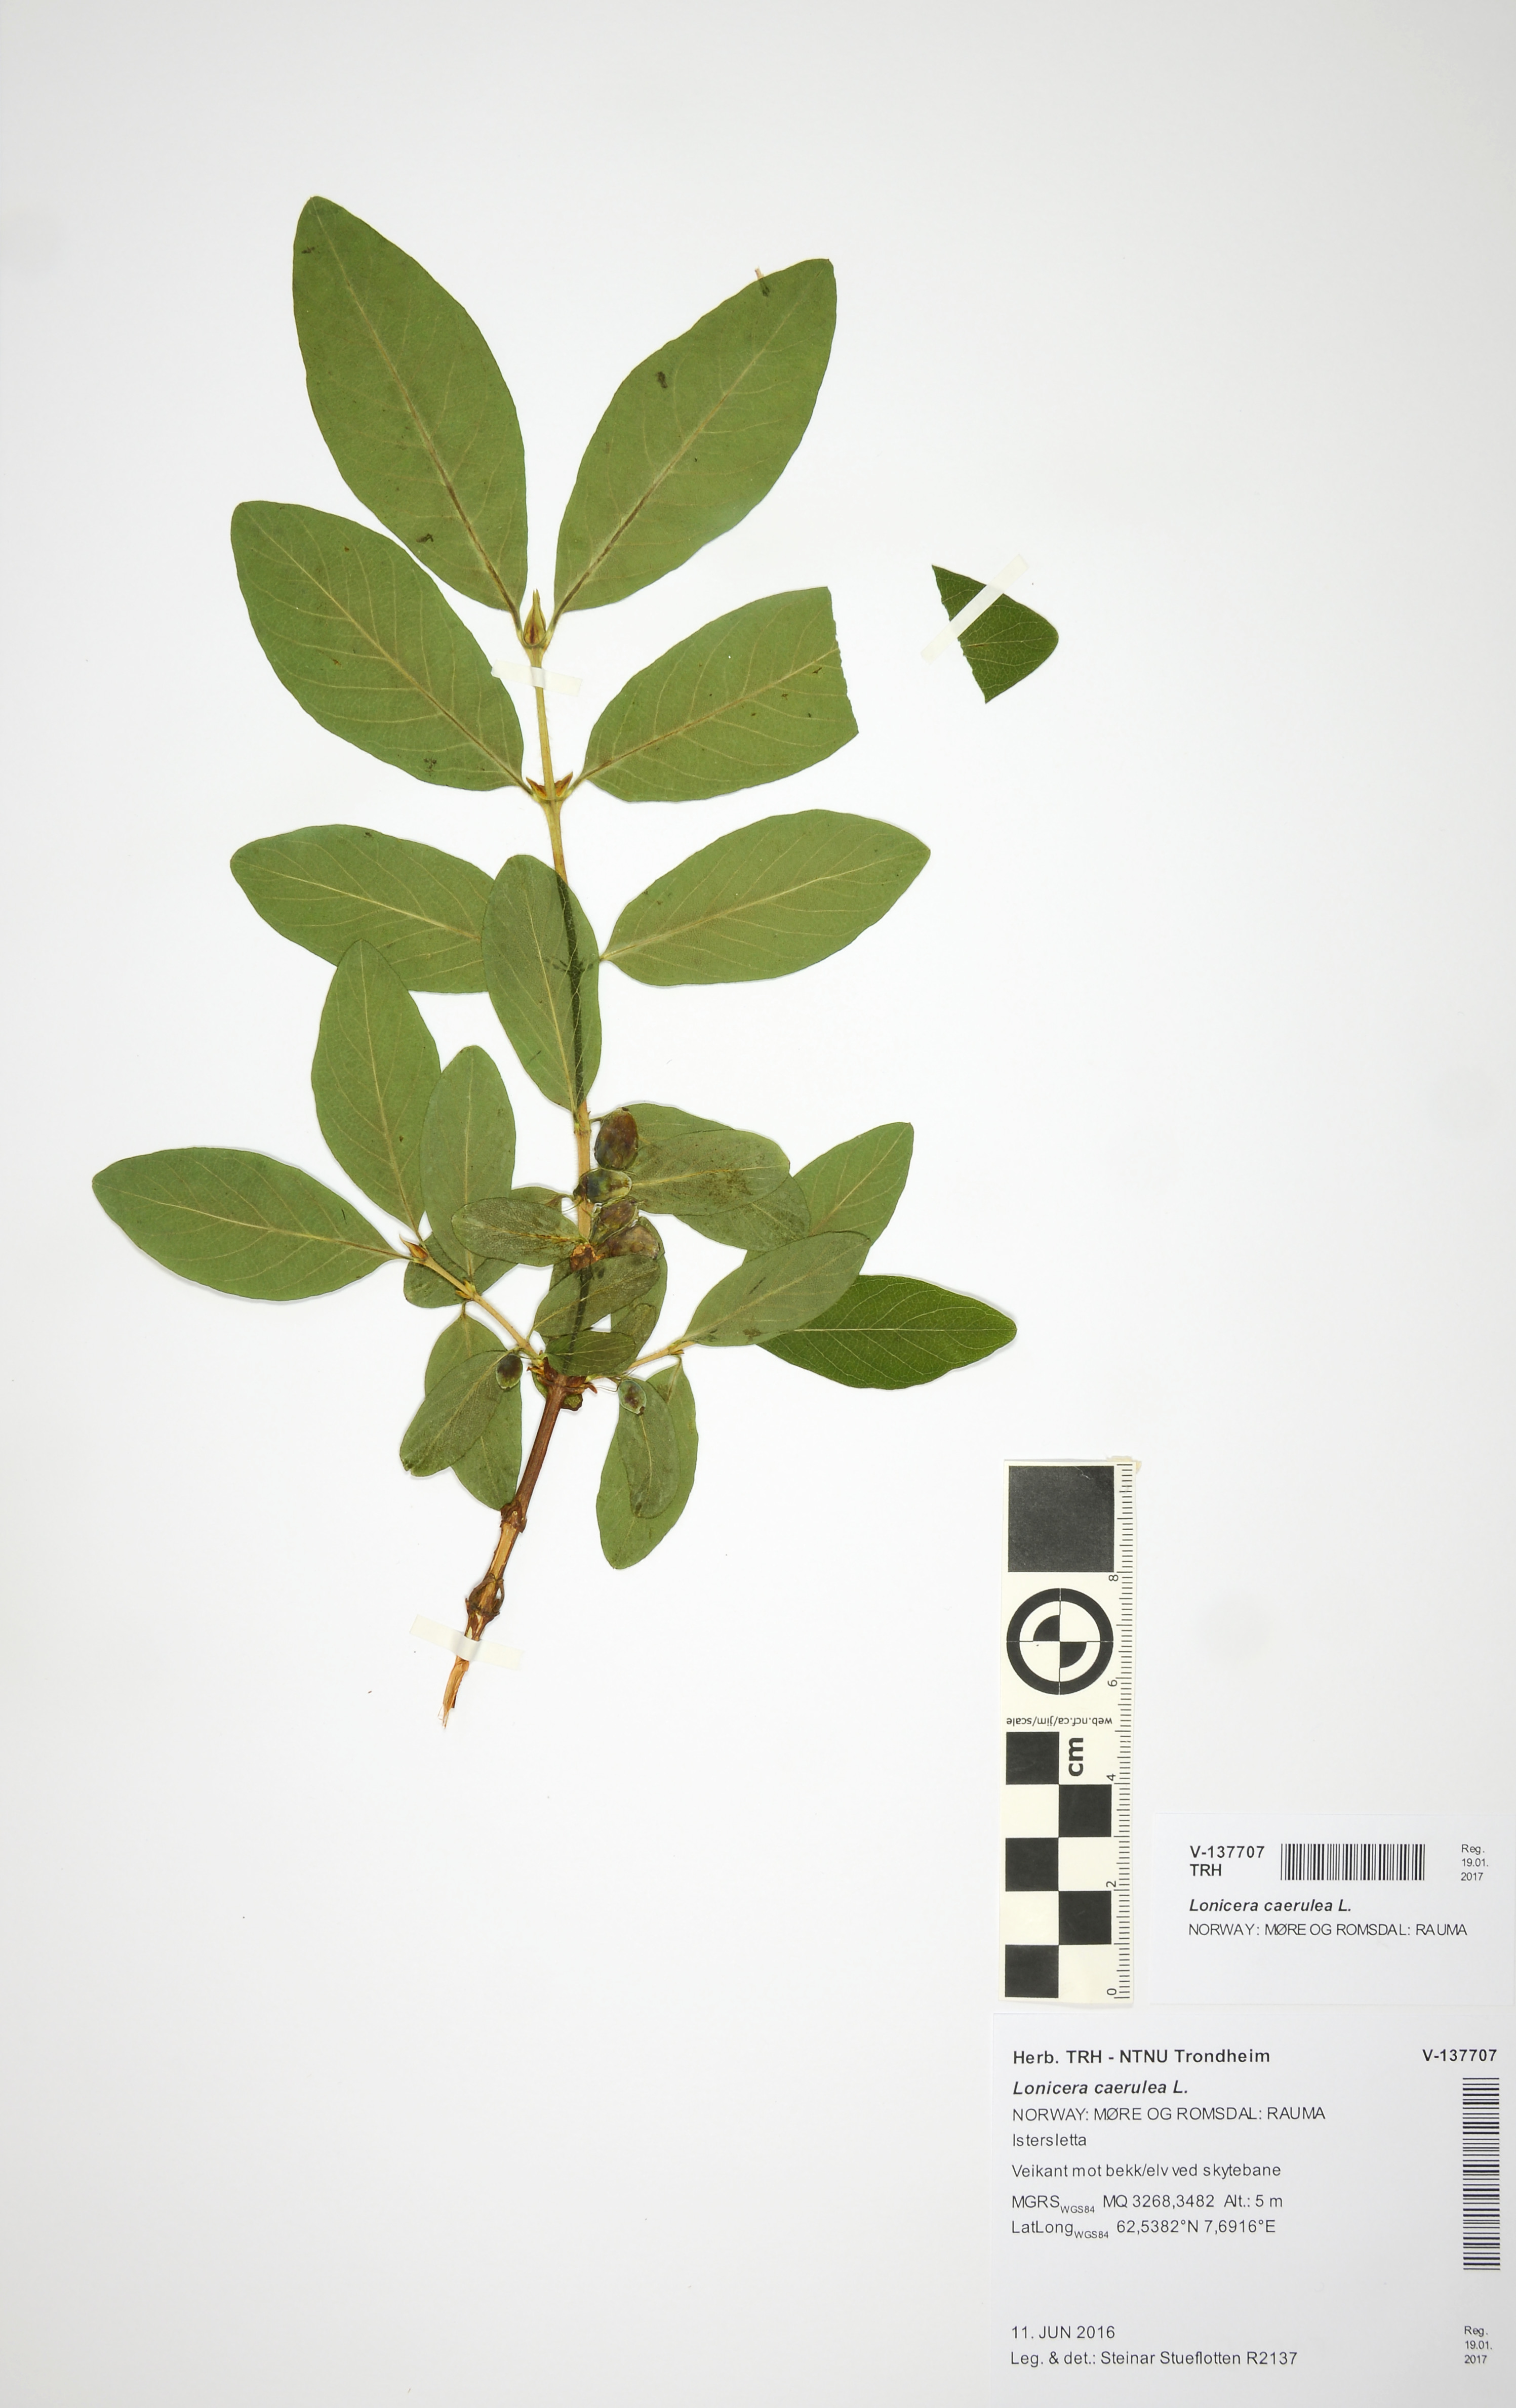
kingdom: Plantae
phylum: Tracheophyta
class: Magnoliopsida
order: Dipsacales
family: Caprifoliaceae
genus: Lonicera
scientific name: Lonicera caerulea
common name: Blue honeysuckle
